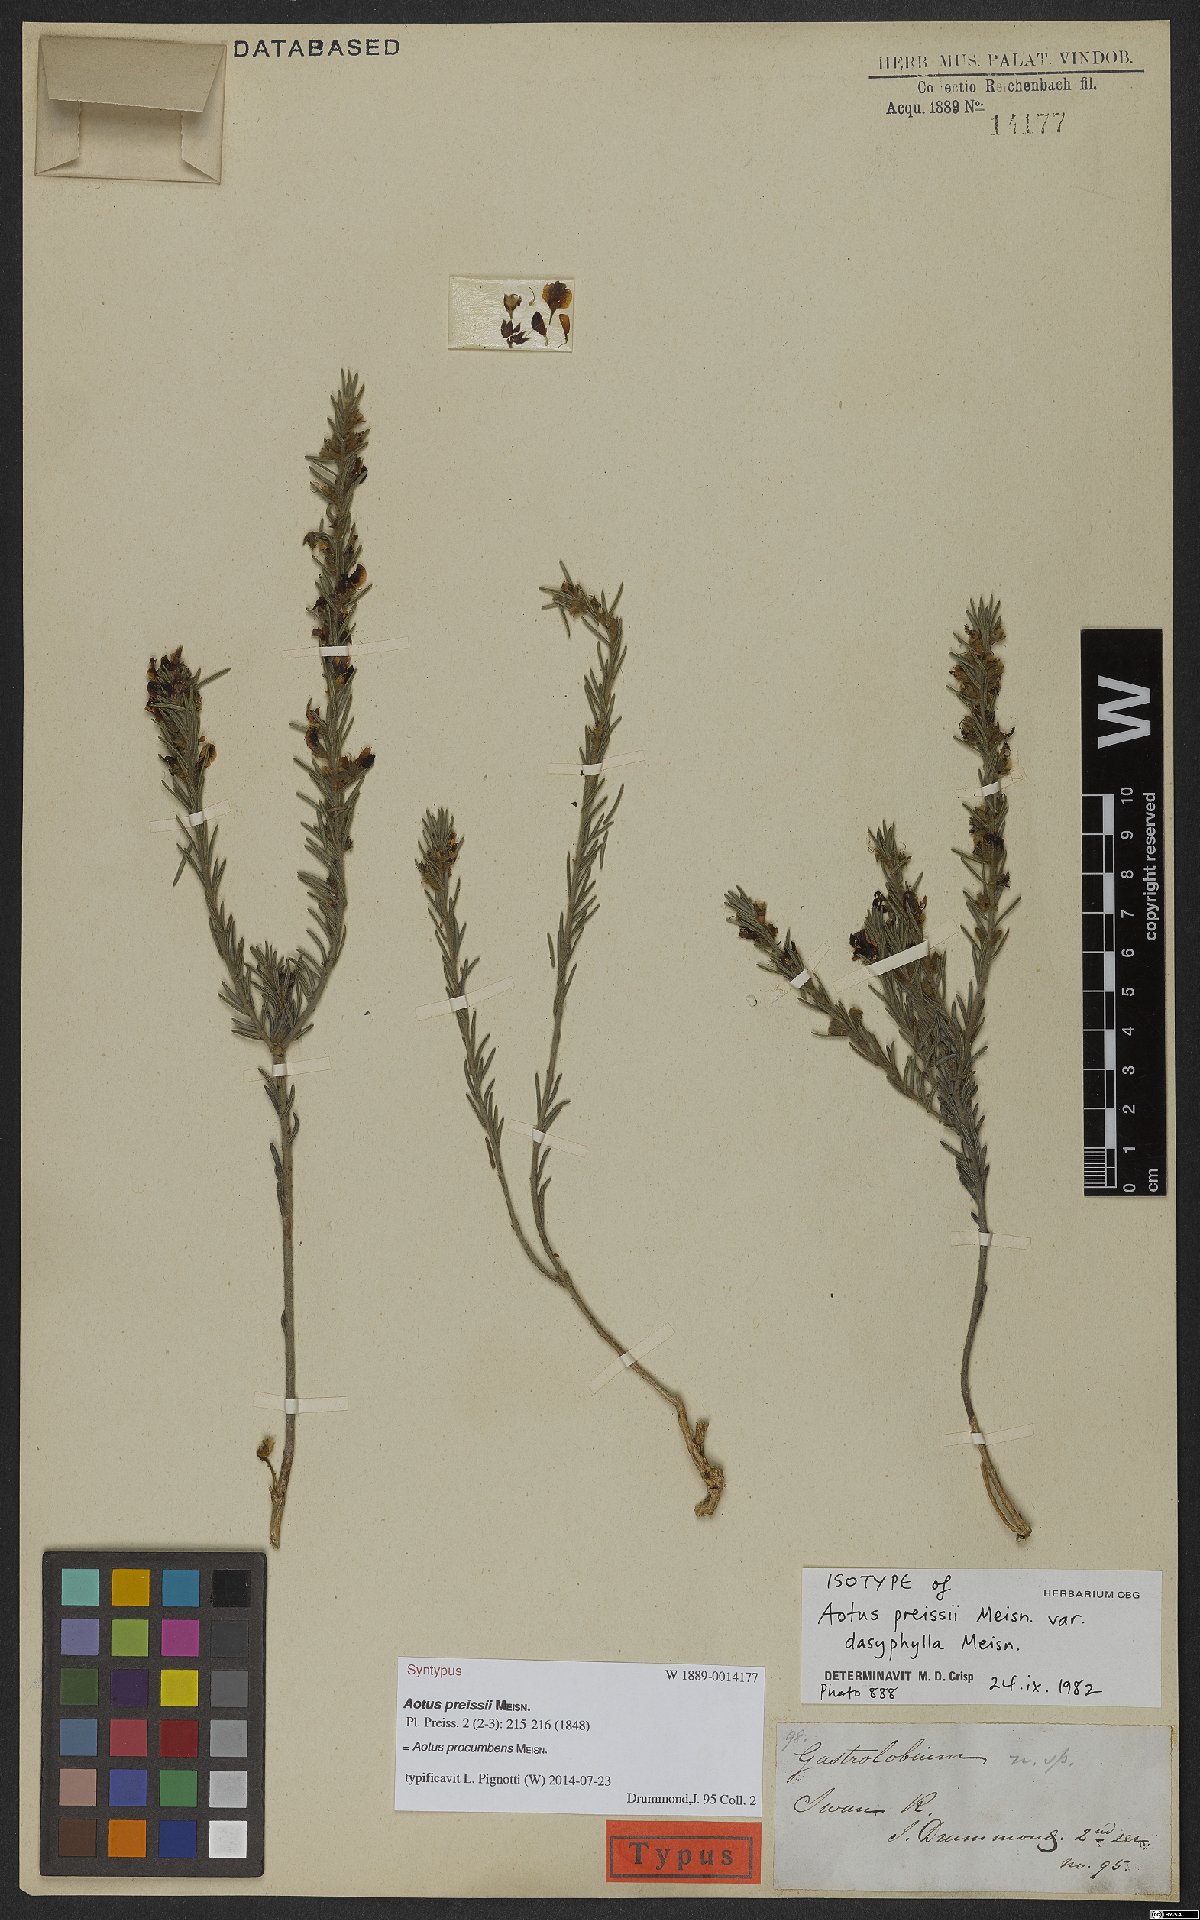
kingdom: Plantae
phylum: Tracheophyta
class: Magnoliopsida
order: Fabales
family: Fabaceae
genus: Aotus
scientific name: Aotus procumbens
